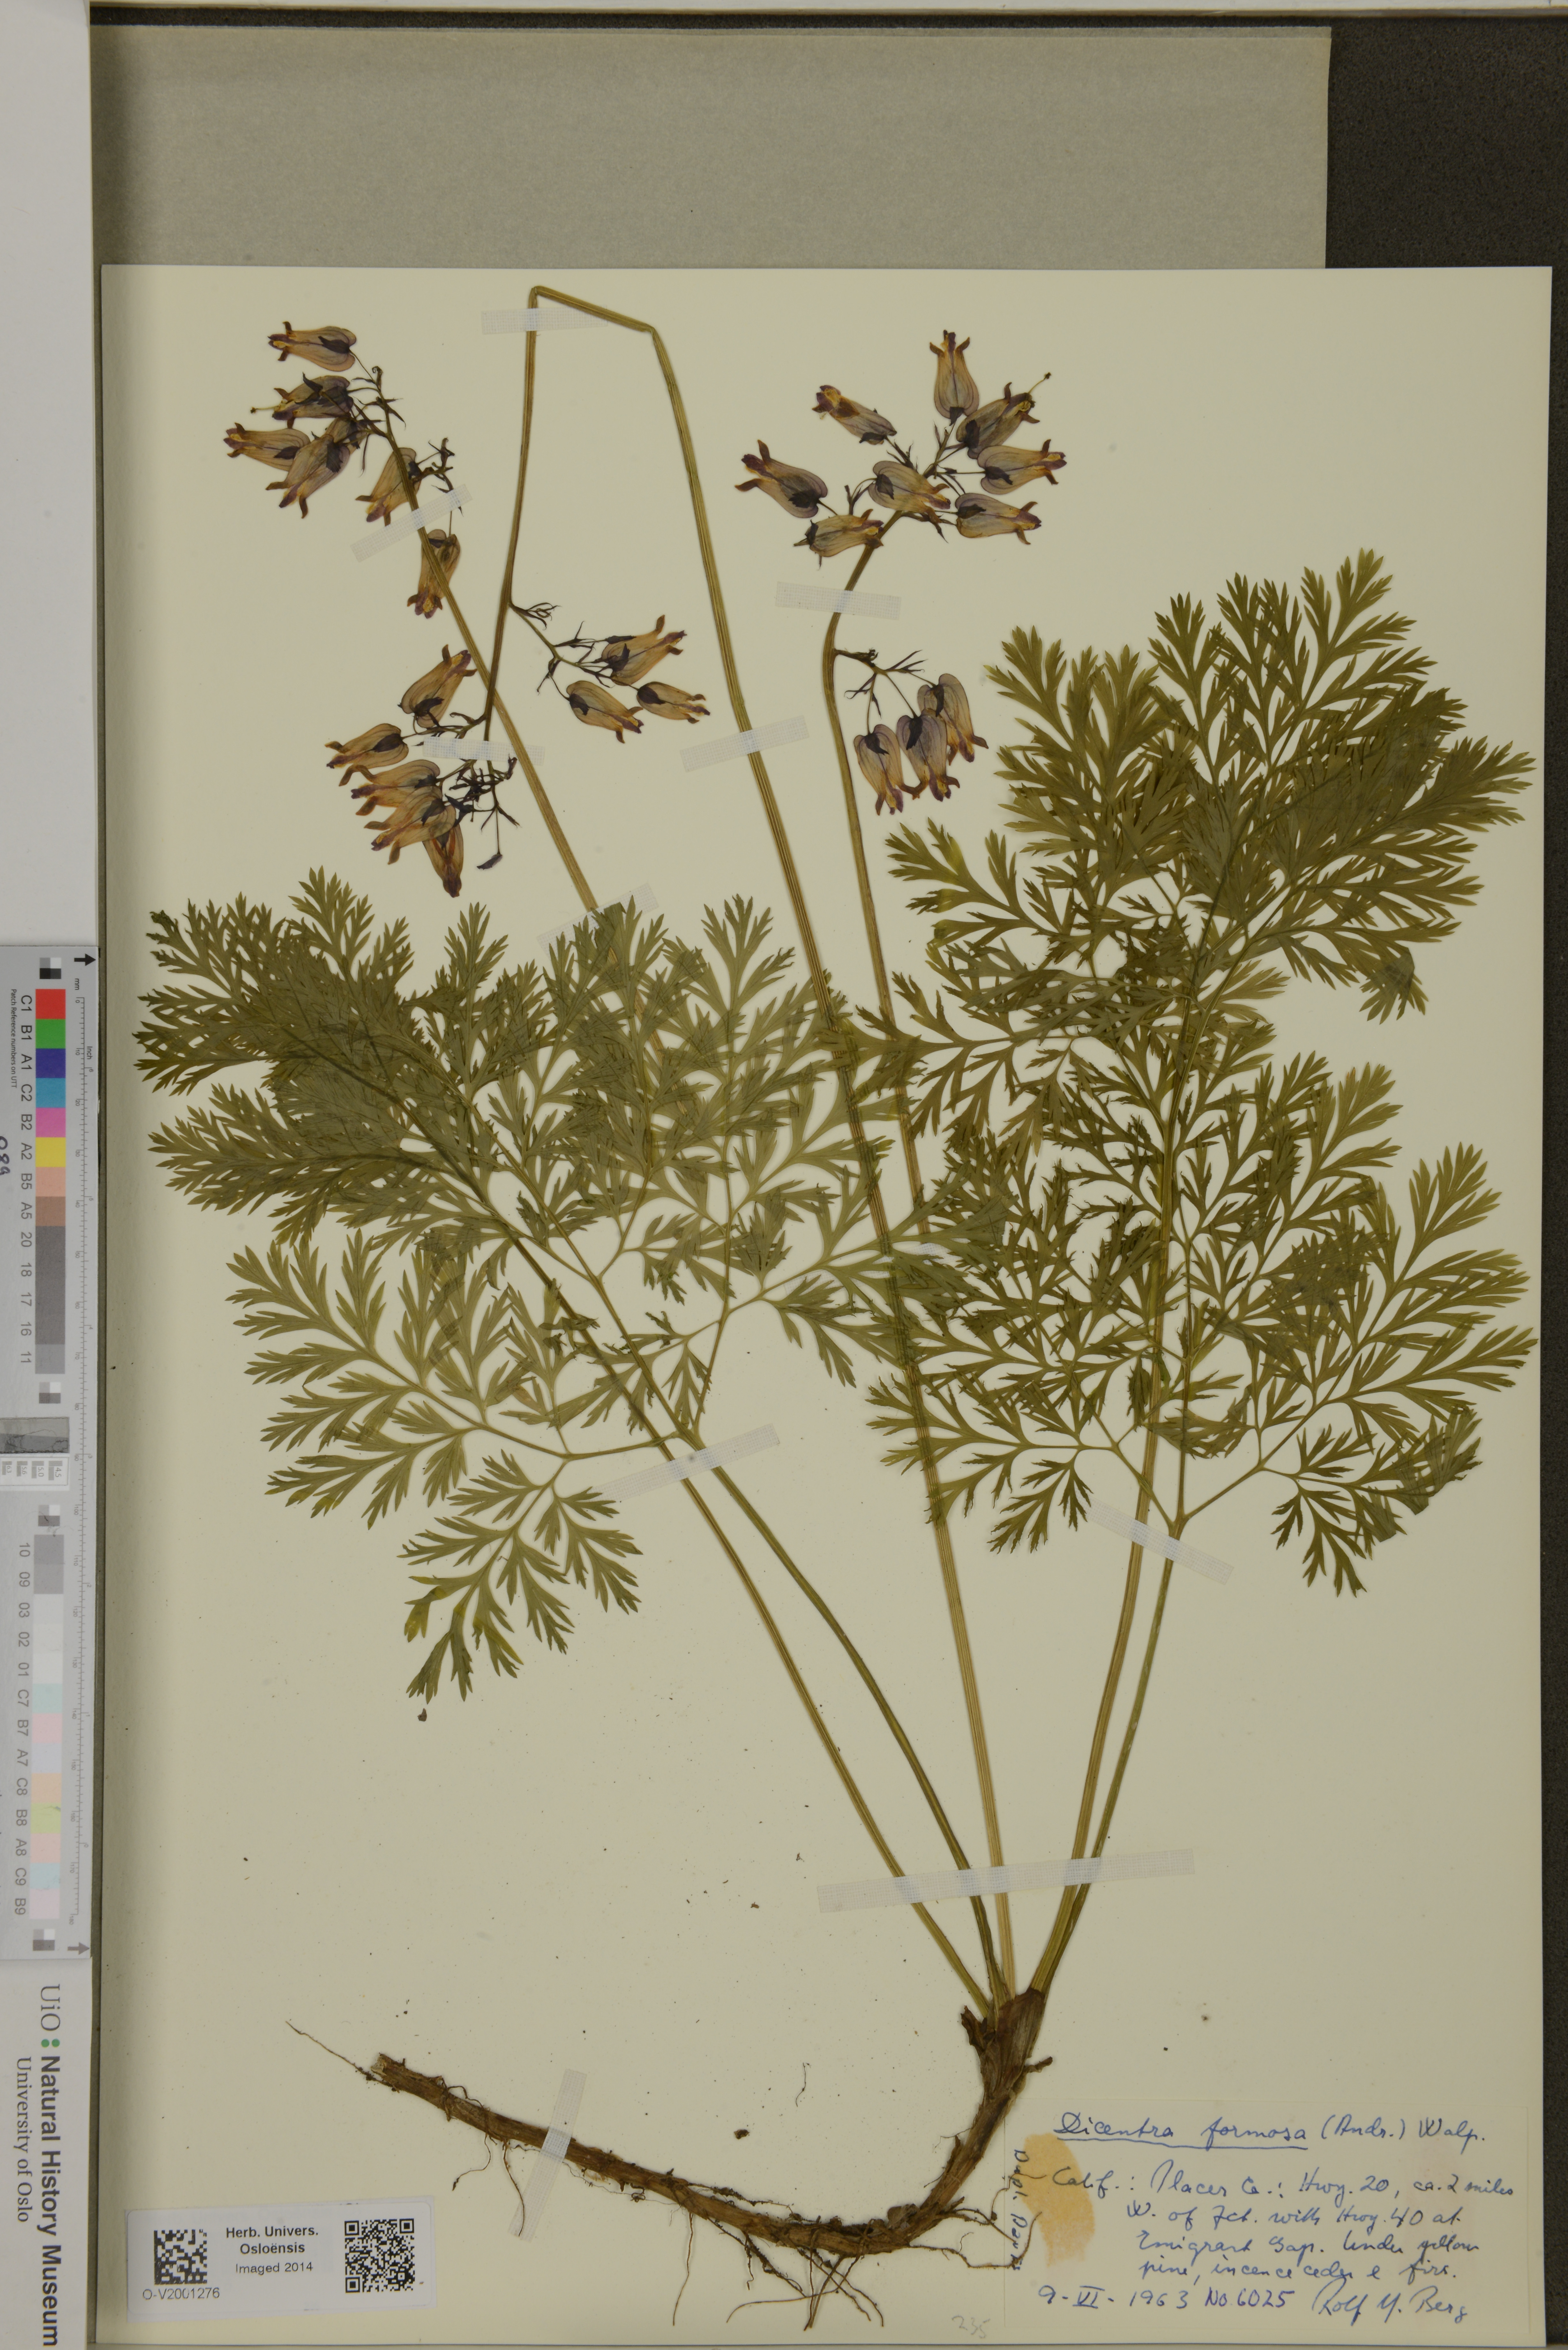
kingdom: Plantae
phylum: Tracheophyta
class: Magnoliopsida
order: Ranunculales
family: Papaveraceae
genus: Dicentra
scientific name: Dicentra formosa
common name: Bleeding-heart
